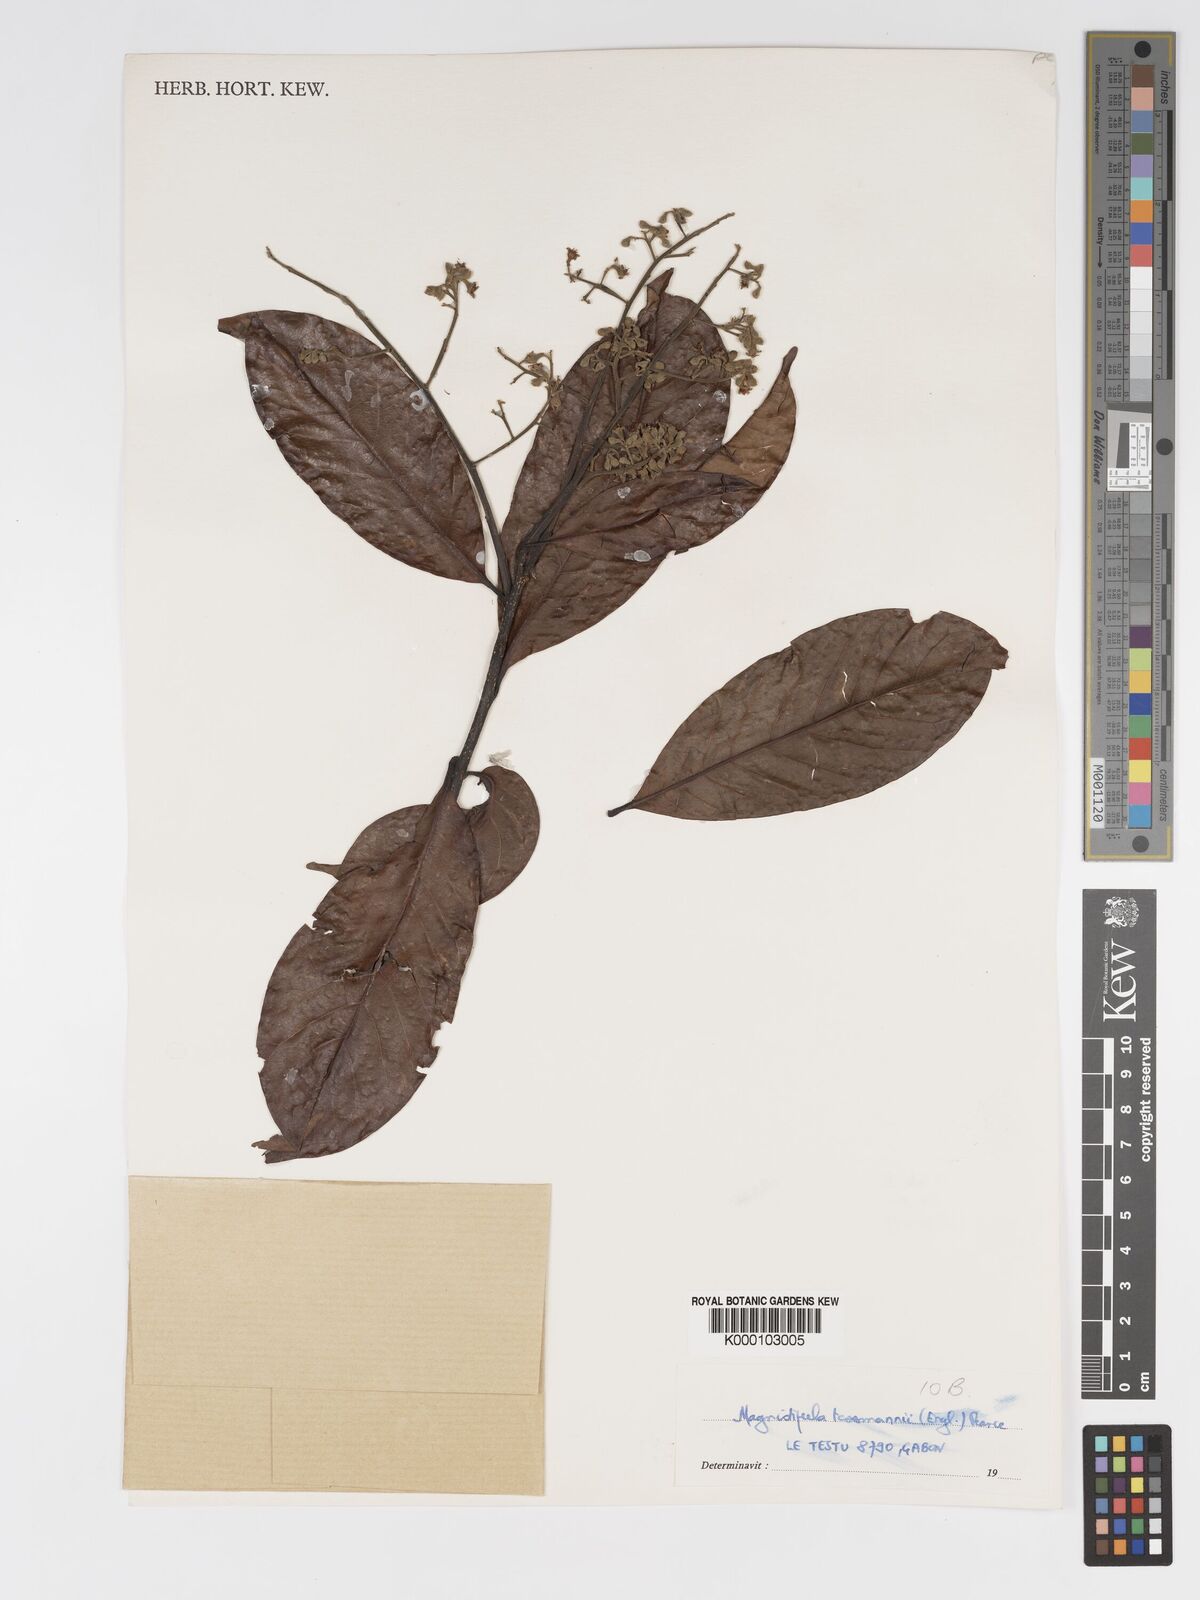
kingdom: Plantae
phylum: Tracheophyta
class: Magnoliopsida
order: Malpighiales
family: Chrysobalanaceae
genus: Magnistipula
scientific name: Magnistipula tessmannii
